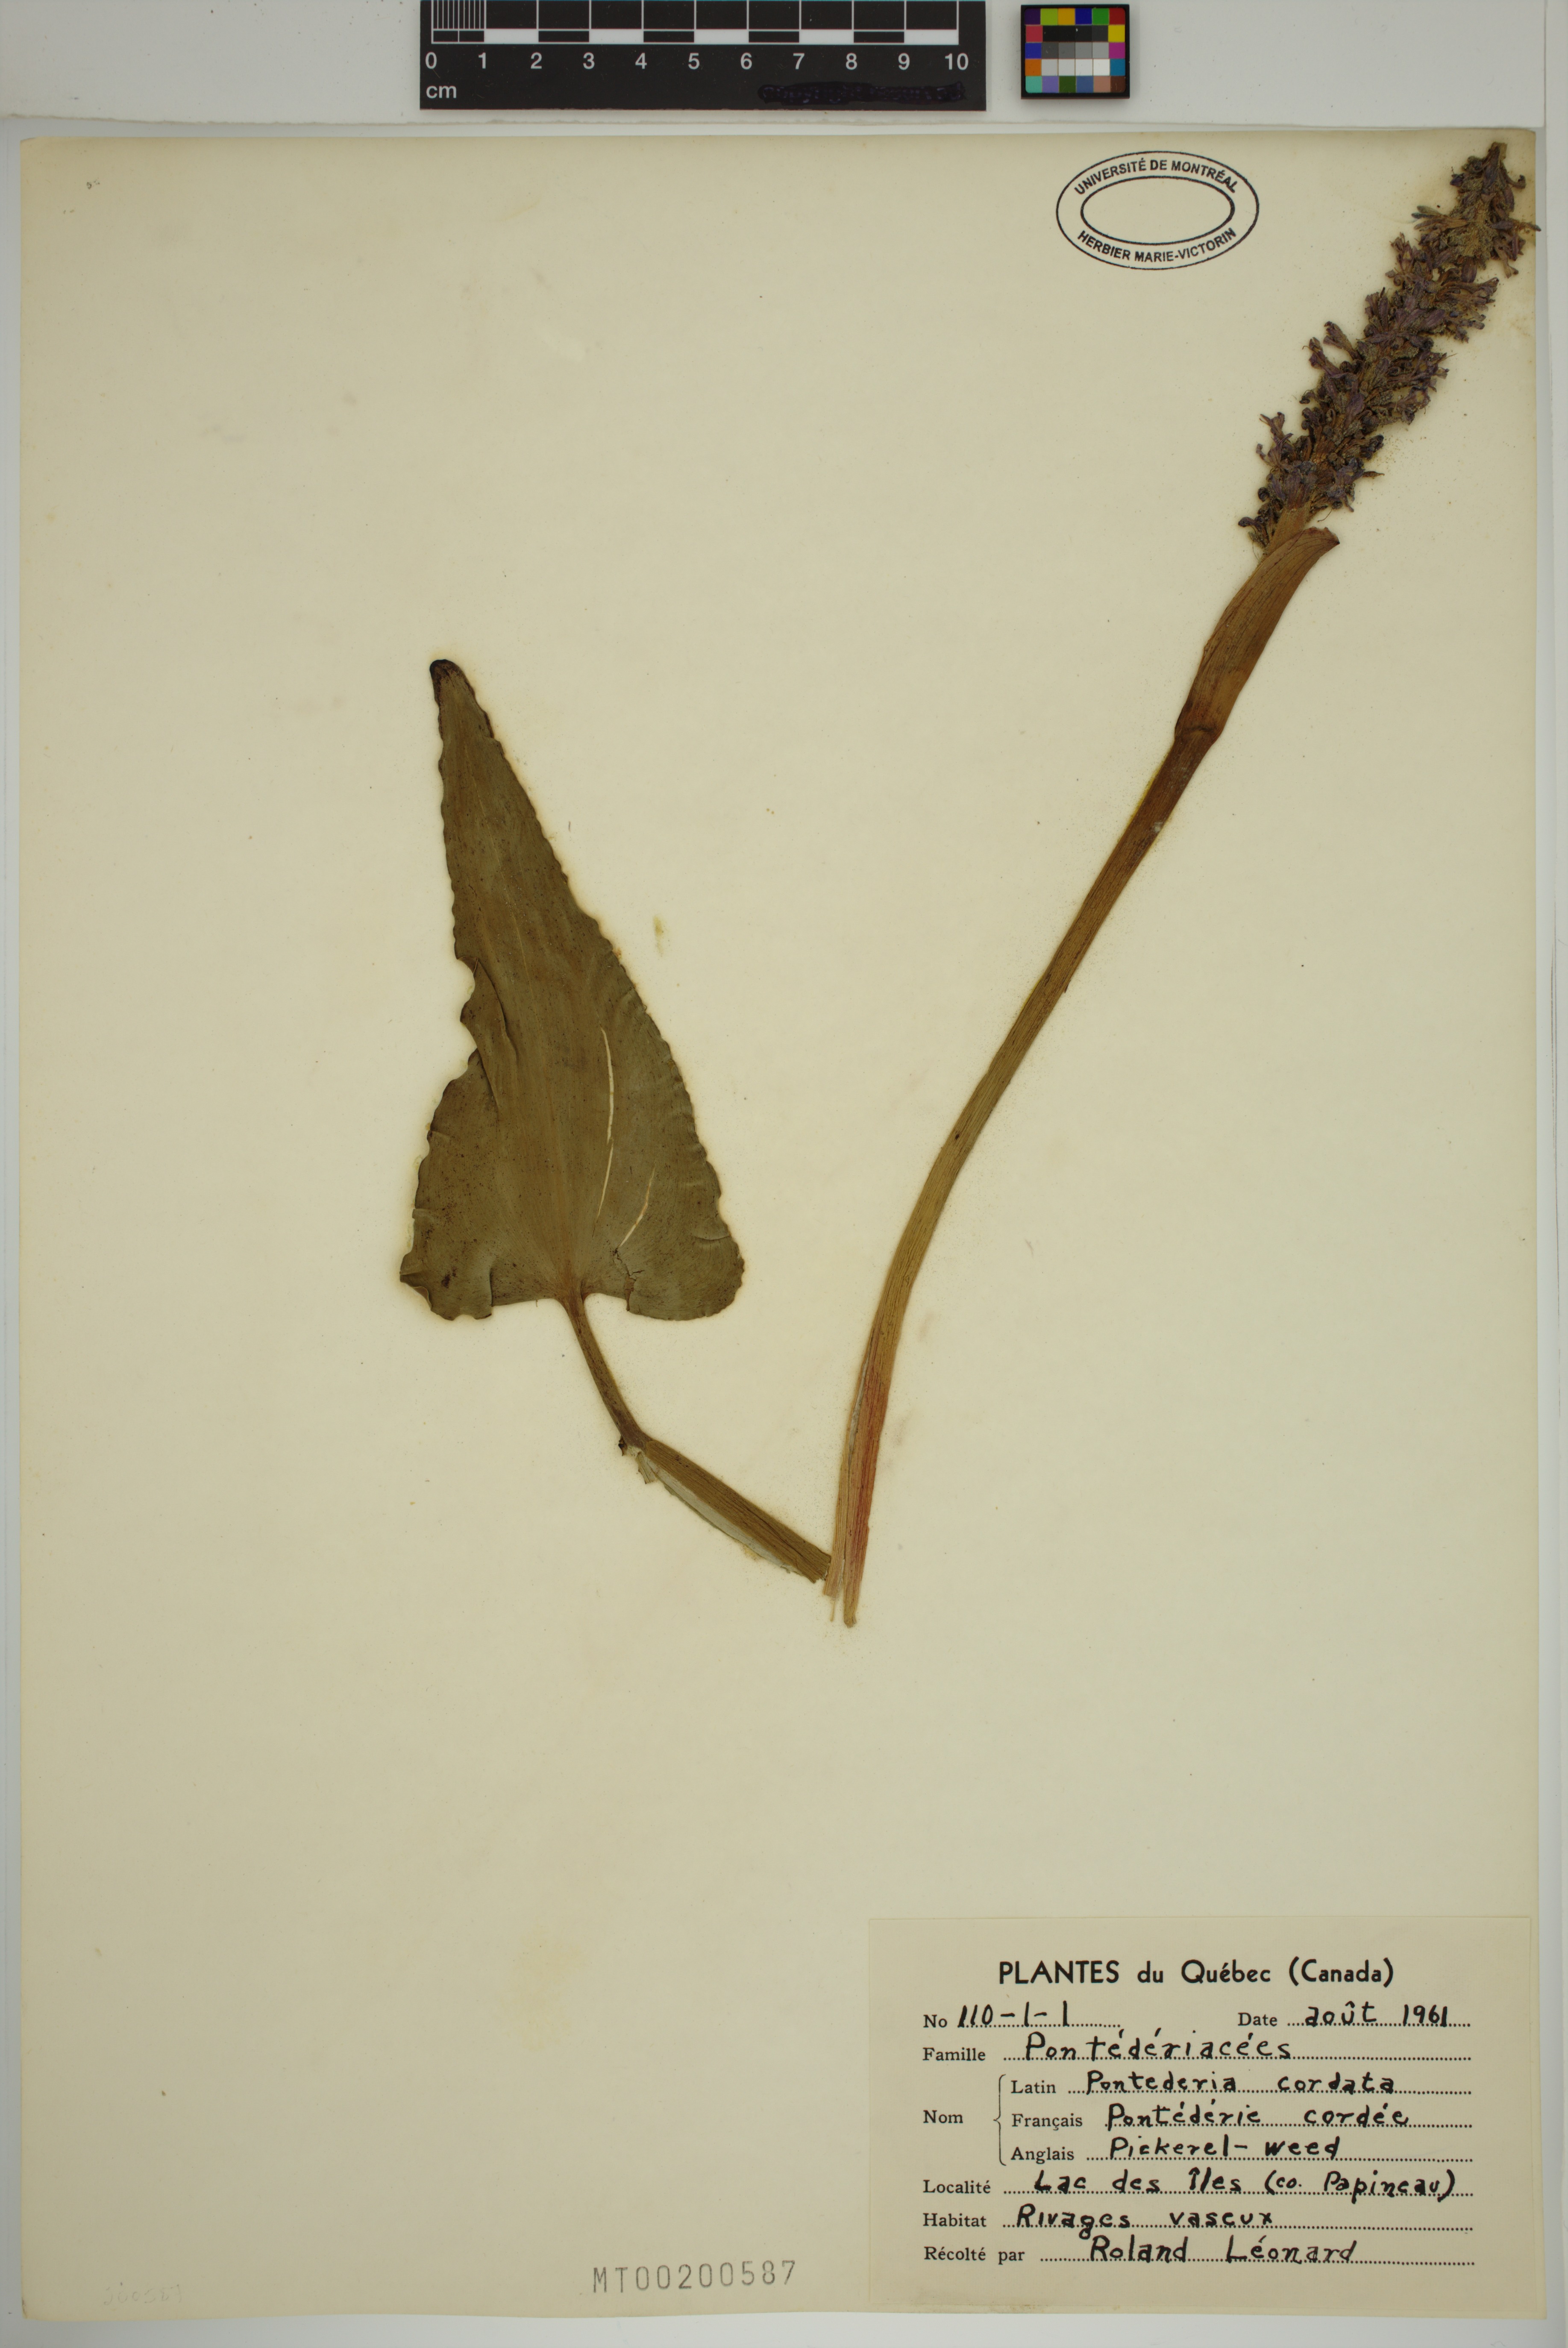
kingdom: Plantae
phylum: Tracheophyta
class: Liliopsida
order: Commelinales
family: Pontederiaceae
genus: Pontederia
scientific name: Pontederia cordata
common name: Pickerelweed
